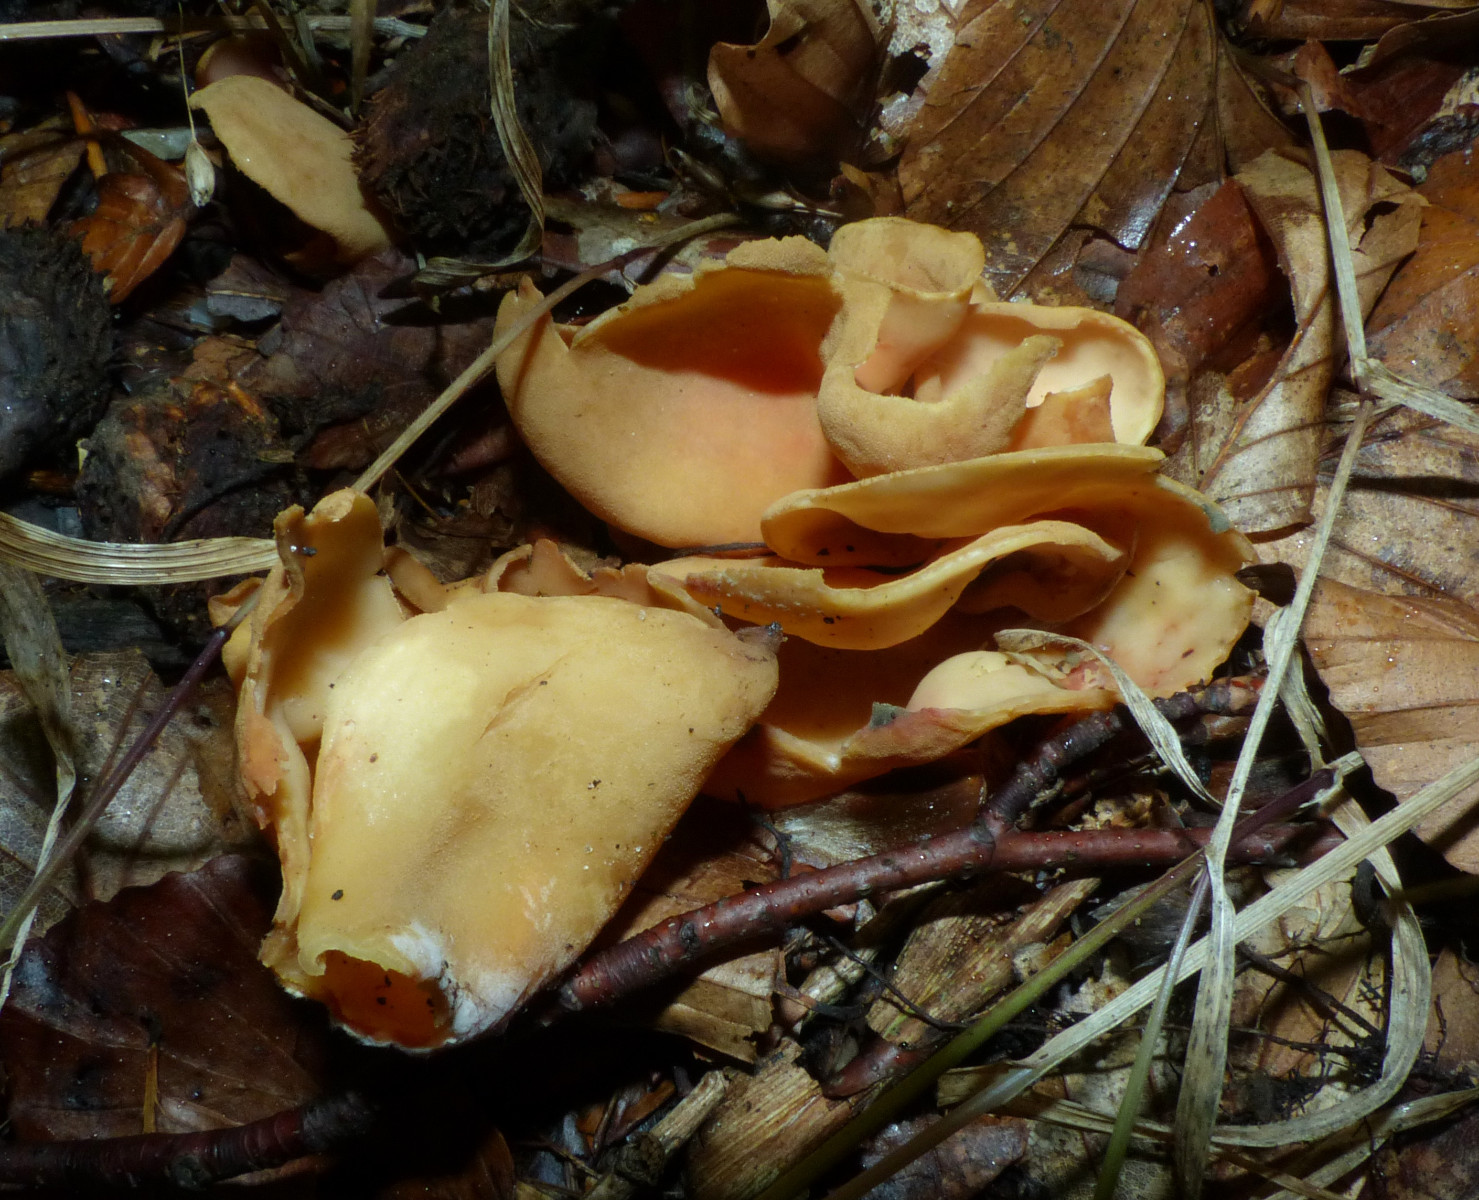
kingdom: Fungi
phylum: Ascomycota
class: Pezizomycetes
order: Pezizales
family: Otideaceae
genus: Otidea
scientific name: Otidea onotica
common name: æsel-ørebæger
